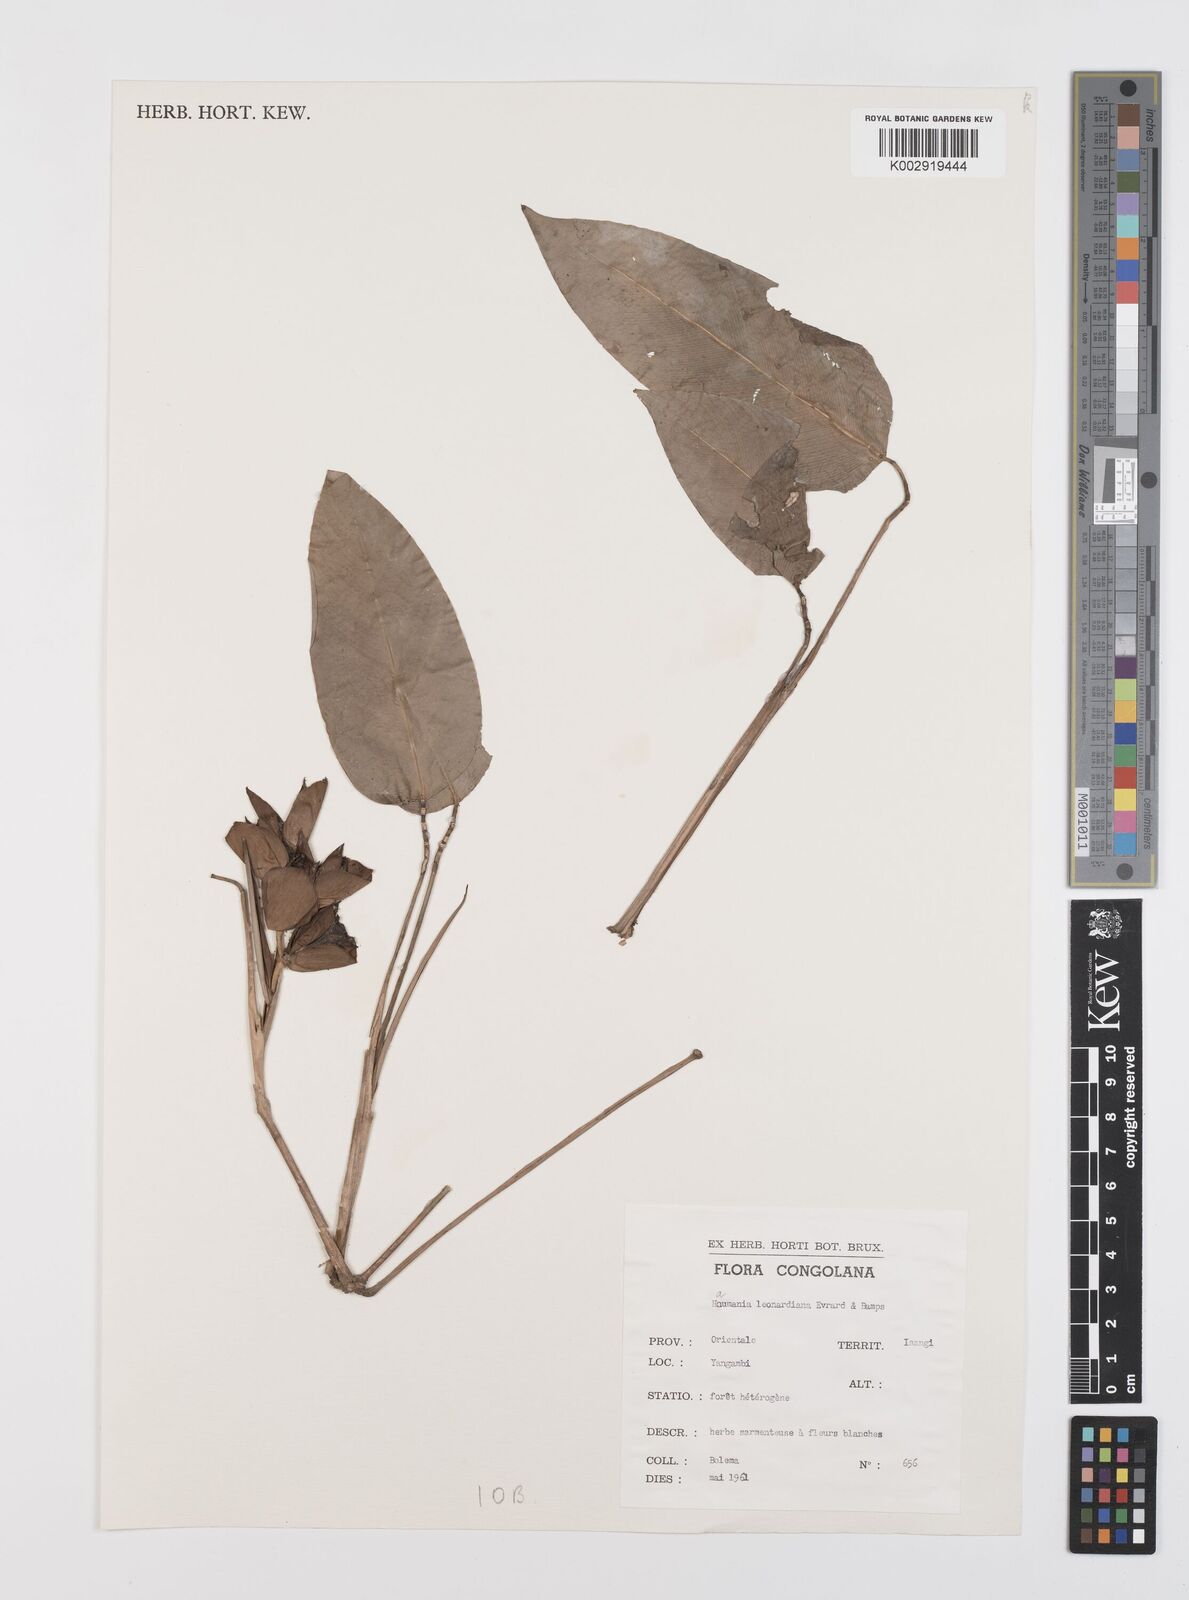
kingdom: Plantae
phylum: Tracheophyta
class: Liliopsida
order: Zingiberales
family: Marantaceae
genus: Haumania
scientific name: Haumania leonardiana
